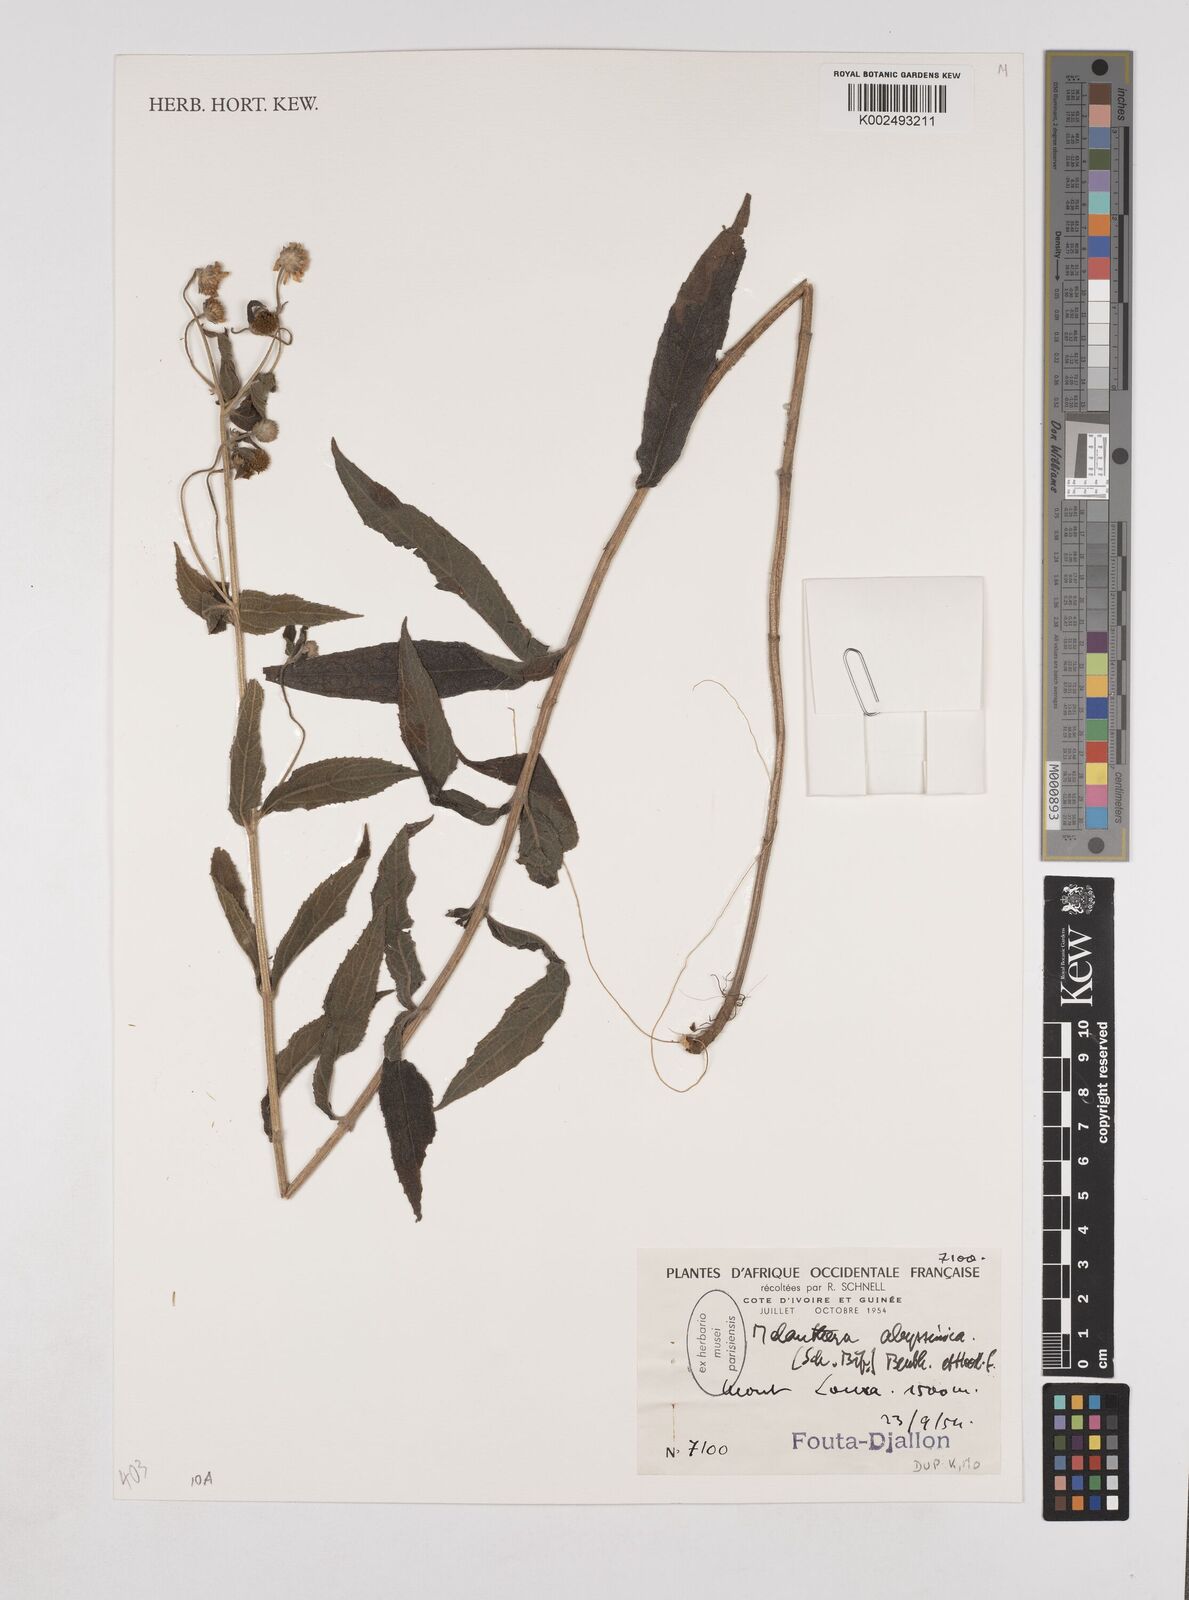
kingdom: Plantae
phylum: Tracheophyta
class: Magnoliopsida
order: Asterales
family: Asteraceae
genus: Lipotriche
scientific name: Lipotriche abyssinica
